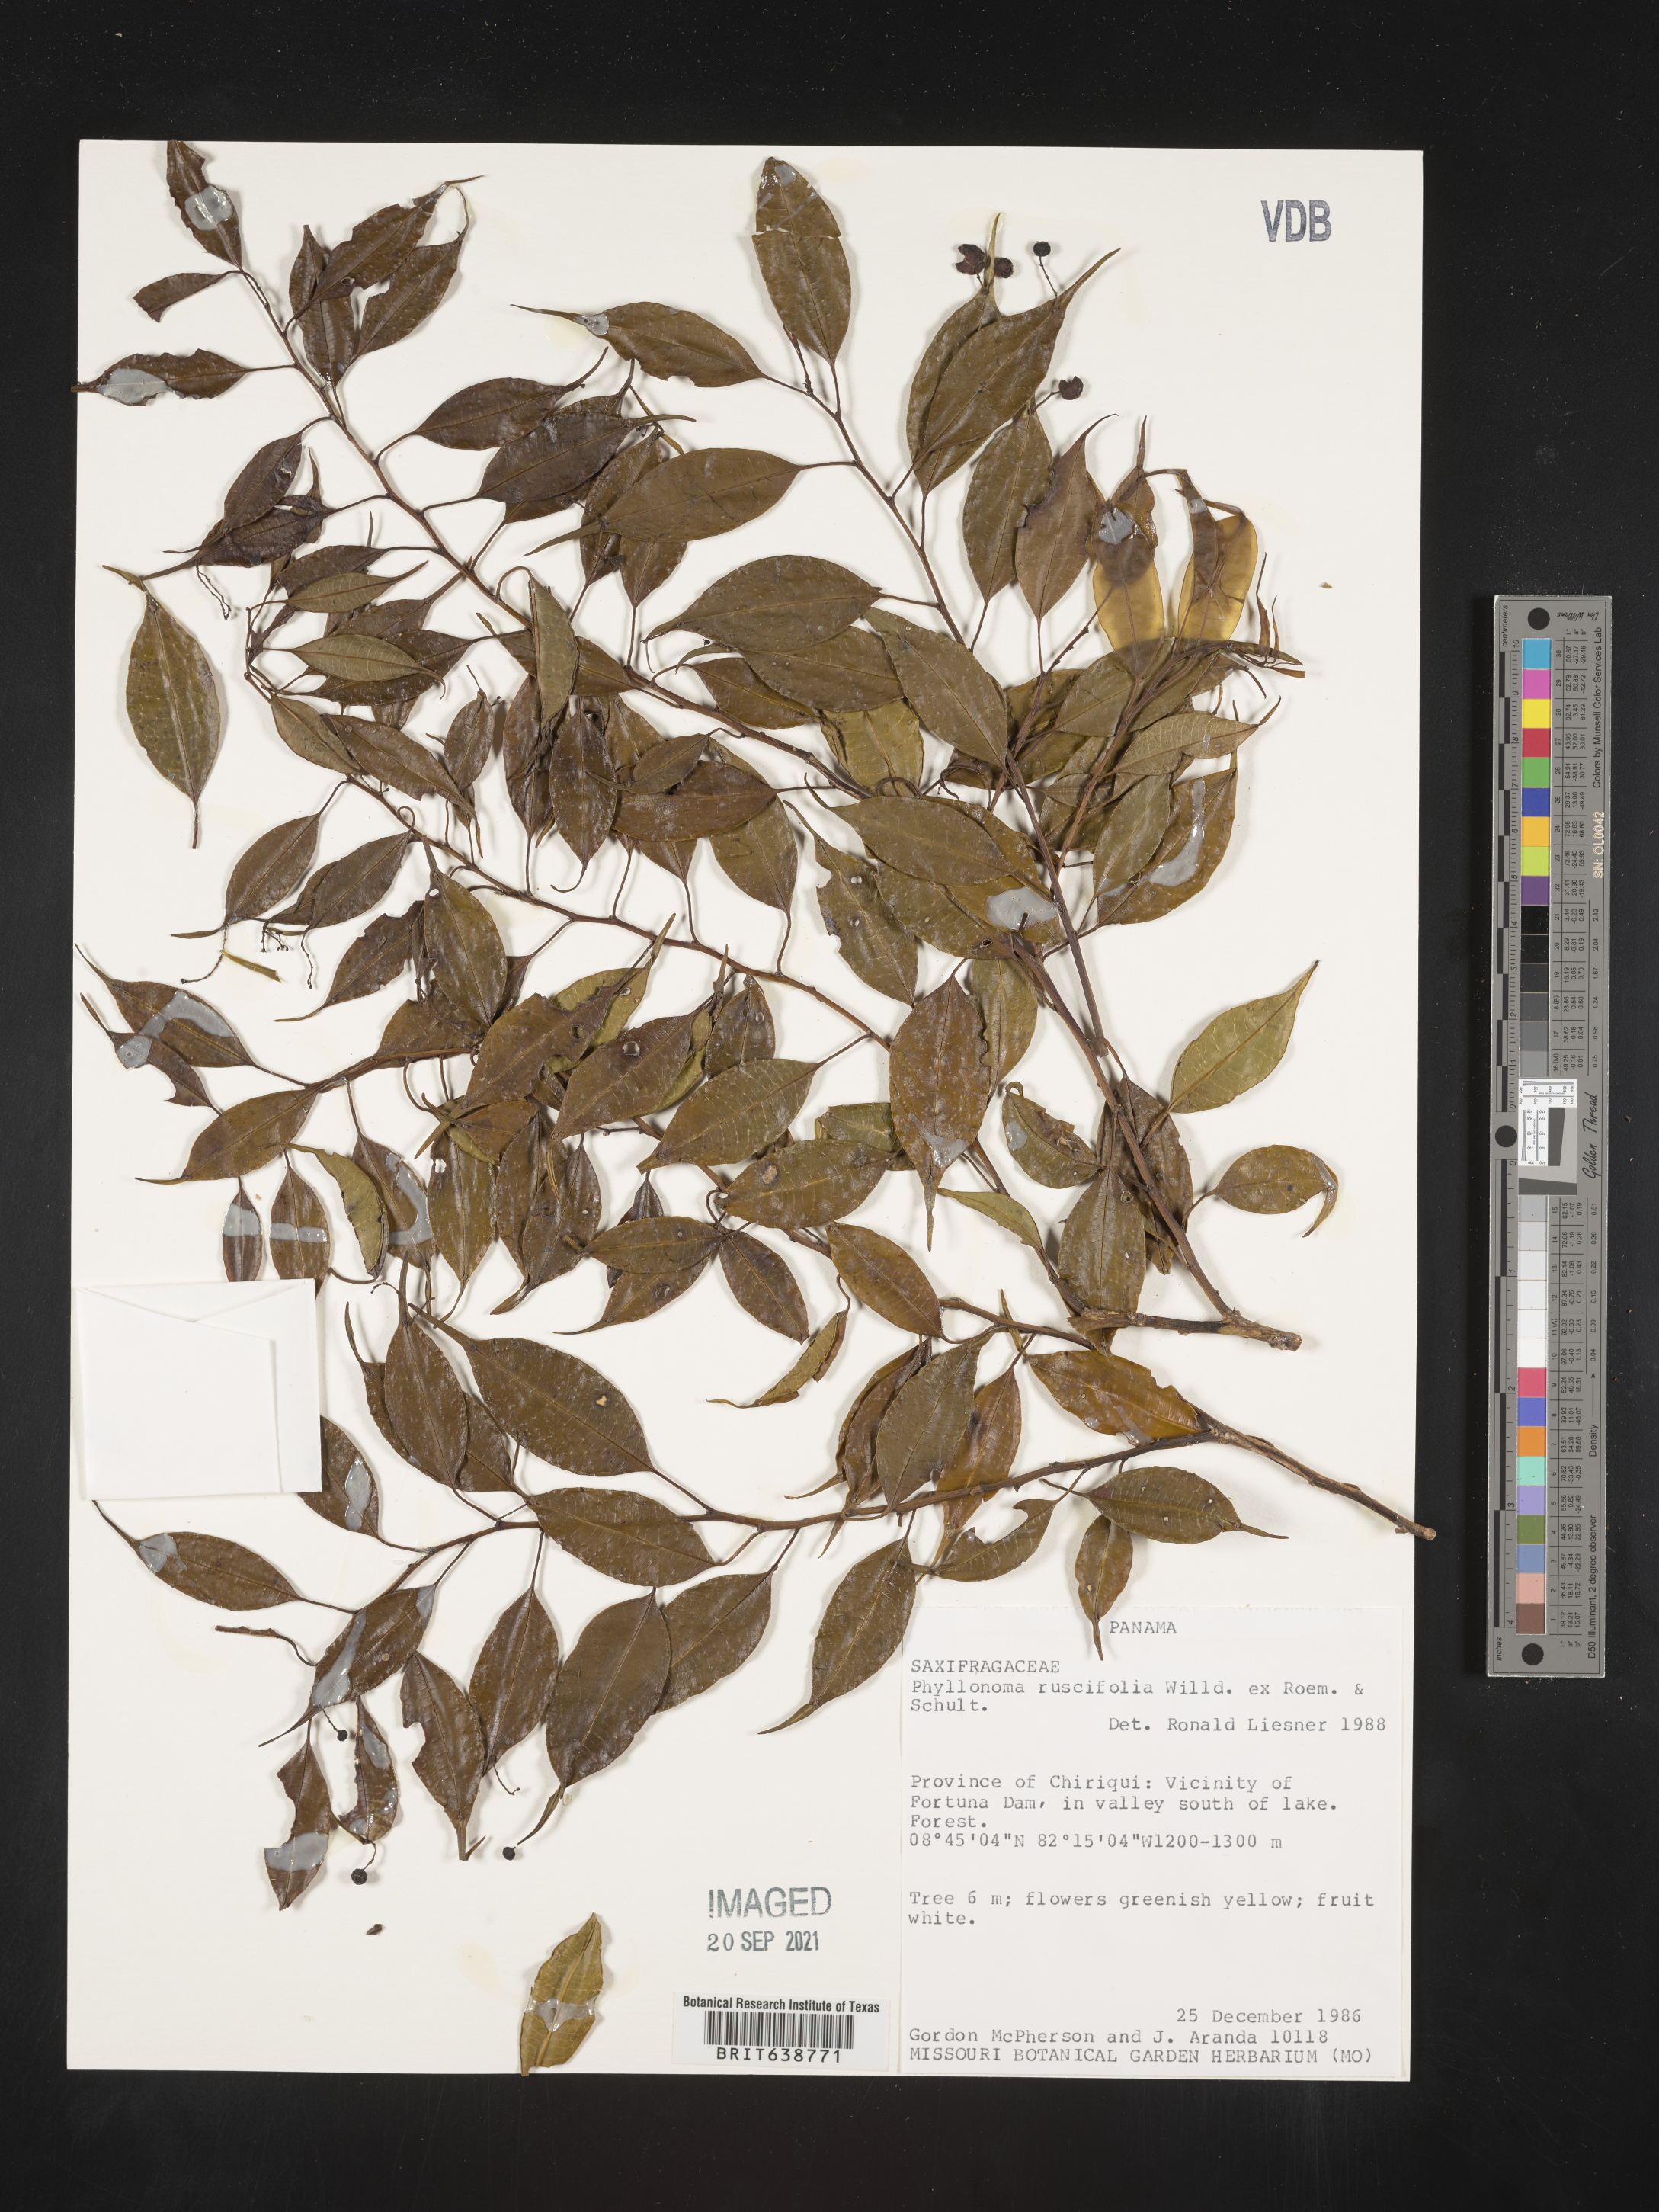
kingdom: Plantae
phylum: Tracheophyta
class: Magnoliopsida
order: Aquifoliales
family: Phyllonomaceae
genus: Phyllonoma
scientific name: Phyllonoma
